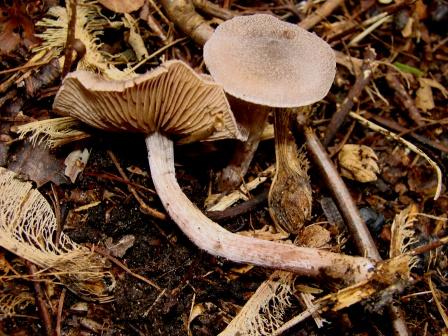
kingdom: Fungi
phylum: Basidiomycota
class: Agaricomycetes
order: Agaricales
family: Cortinariaceae
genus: Cortinarius
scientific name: Cortinarius hemitrichus
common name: hvidfnugget slørhat
